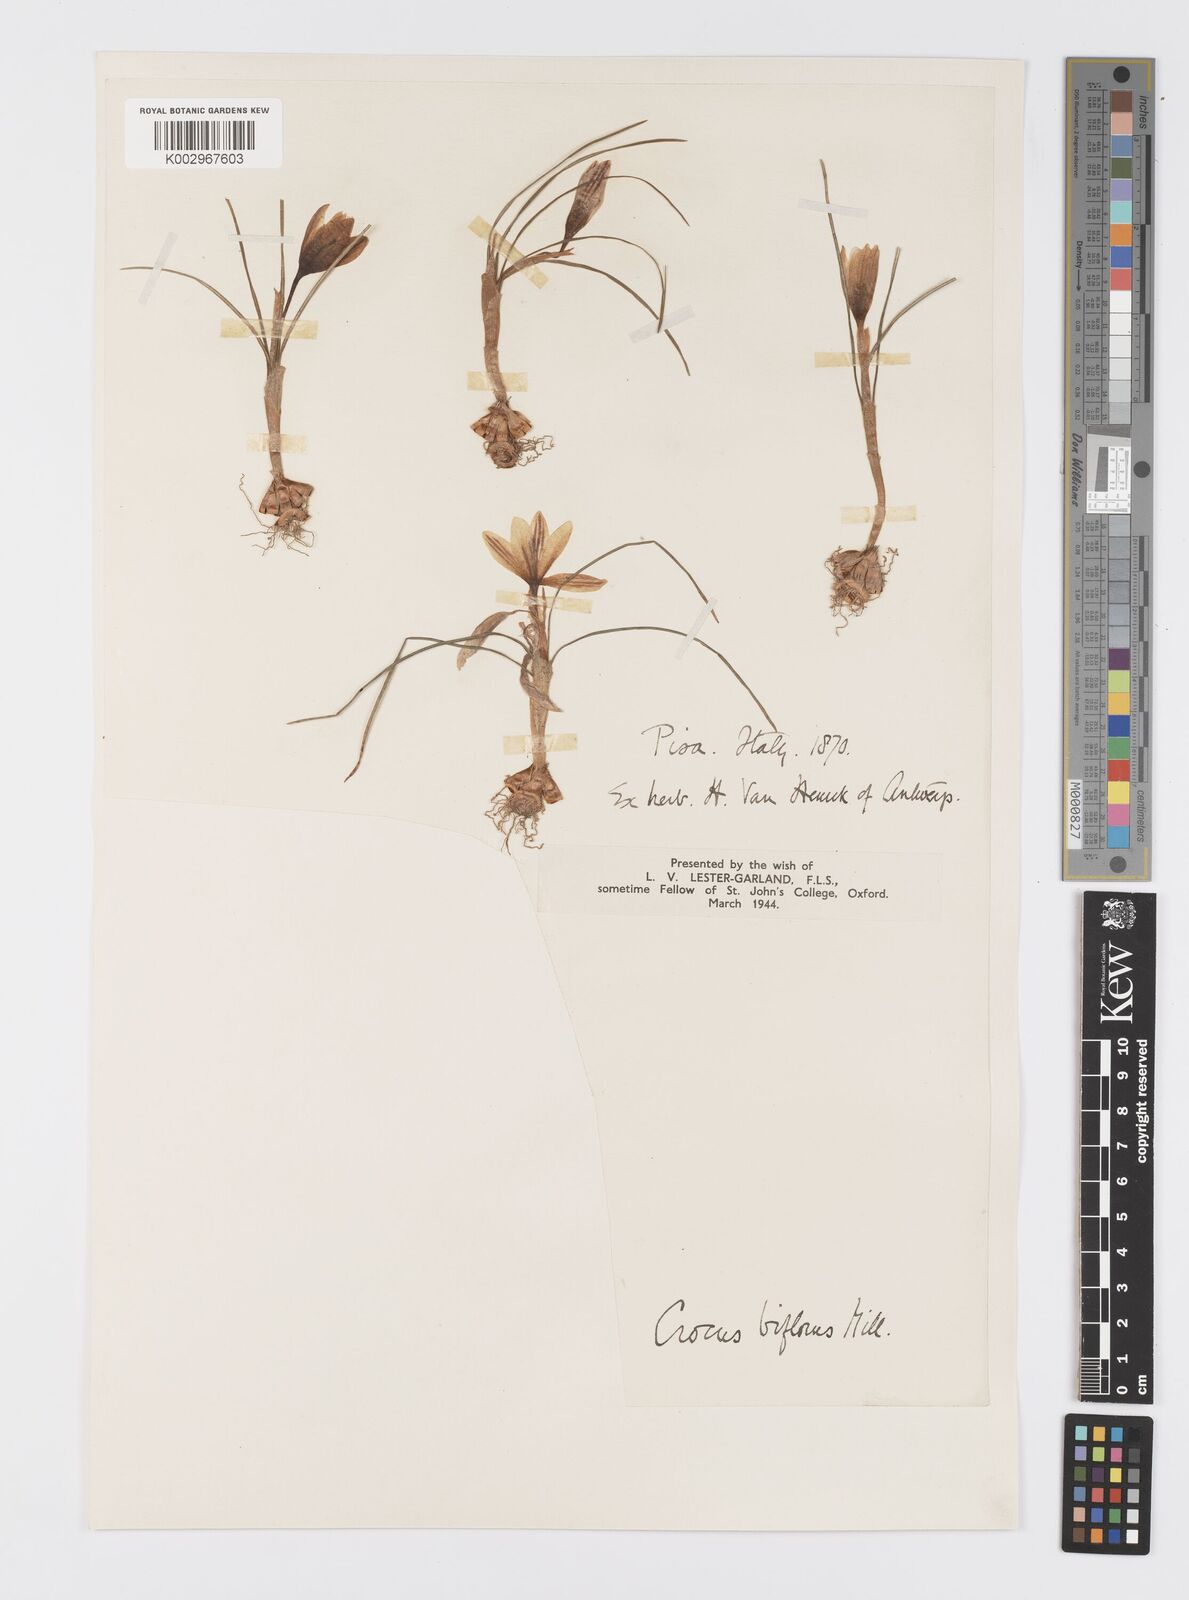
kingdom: Plantae
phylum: Tracheophyta
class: Liliopsida
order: Asparagales
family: Iridaceae
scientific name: Iridaceae
